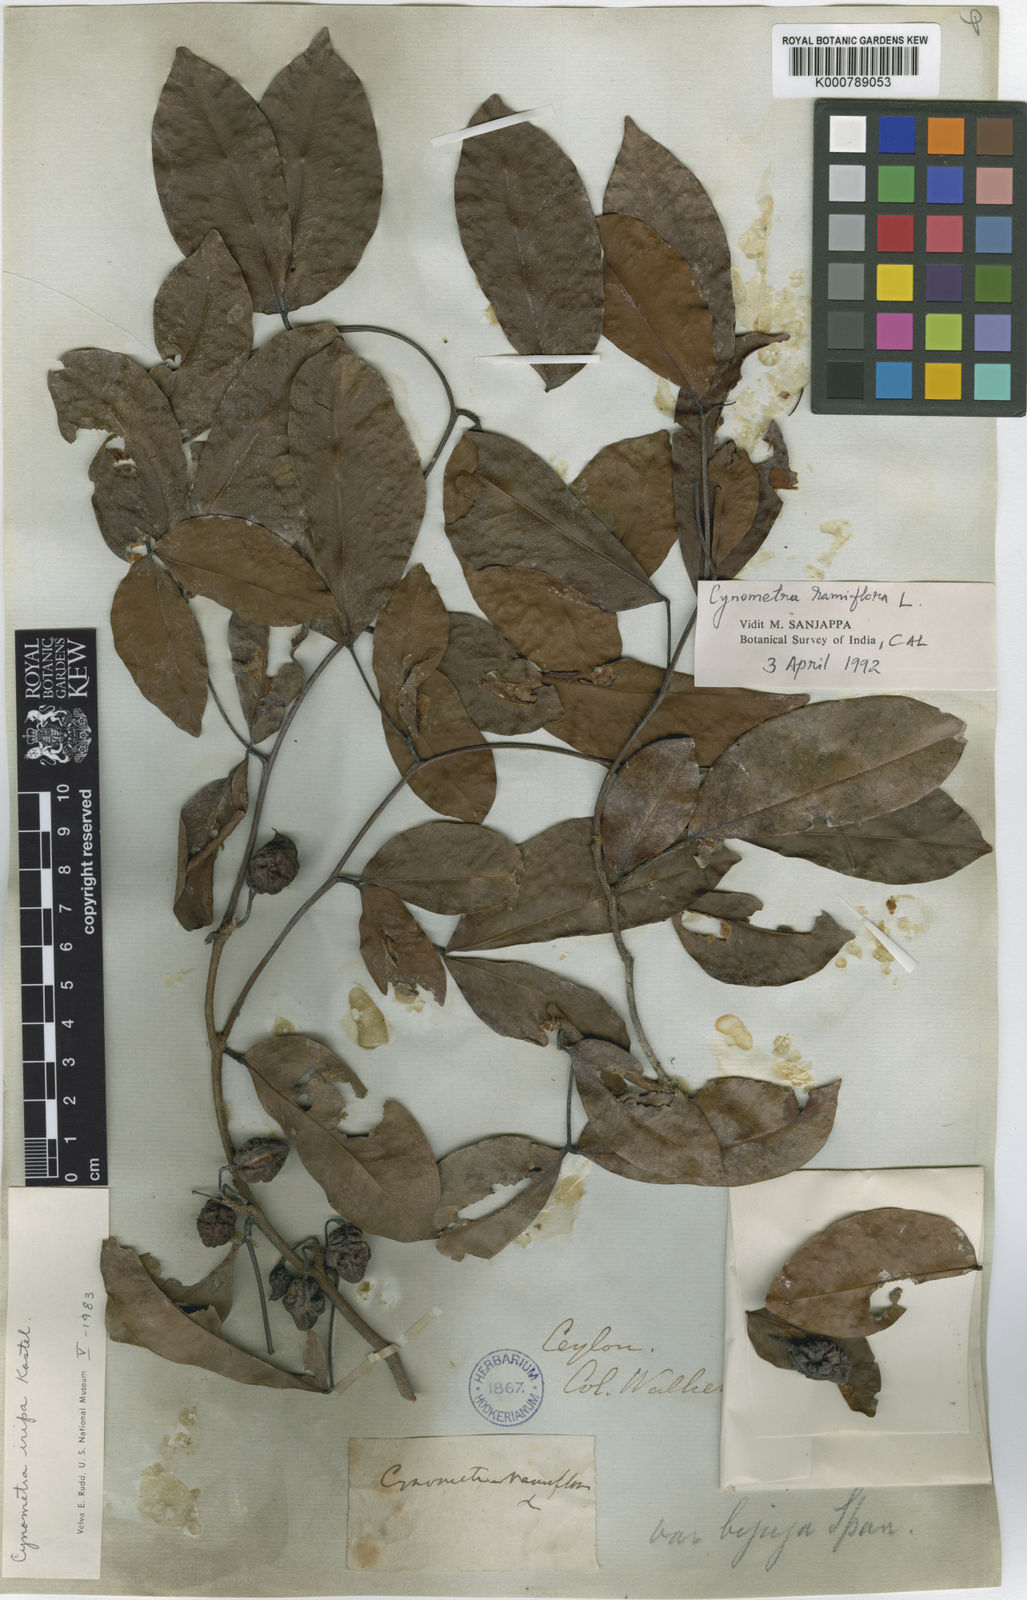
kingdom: Plantae
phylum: Tracheophyta
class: Magnoliopsida
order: Fabales
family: Fabaceae
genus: Cynometra
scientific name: Cynometra iripa
